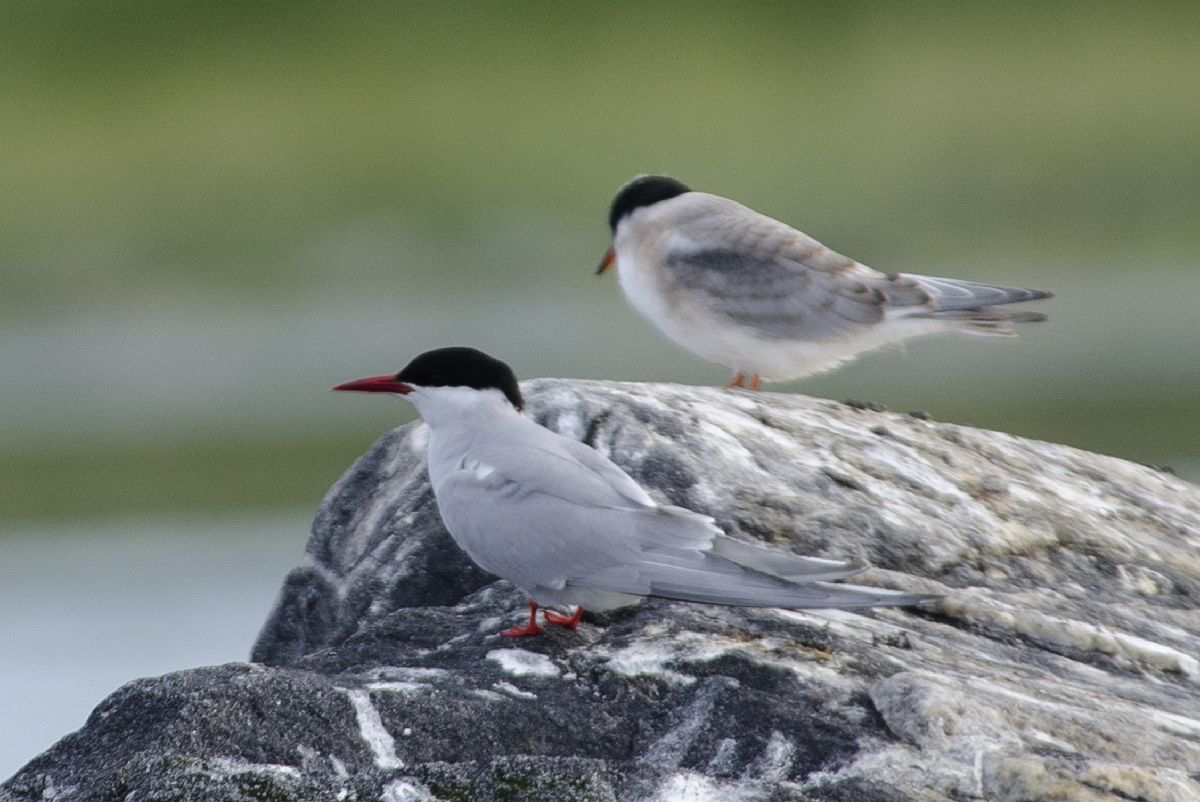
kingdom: Animalia
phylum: Chordata
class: Aves
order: Charadriiformes
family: Laridae
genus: Sterna
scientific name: Sterna paradisaea
